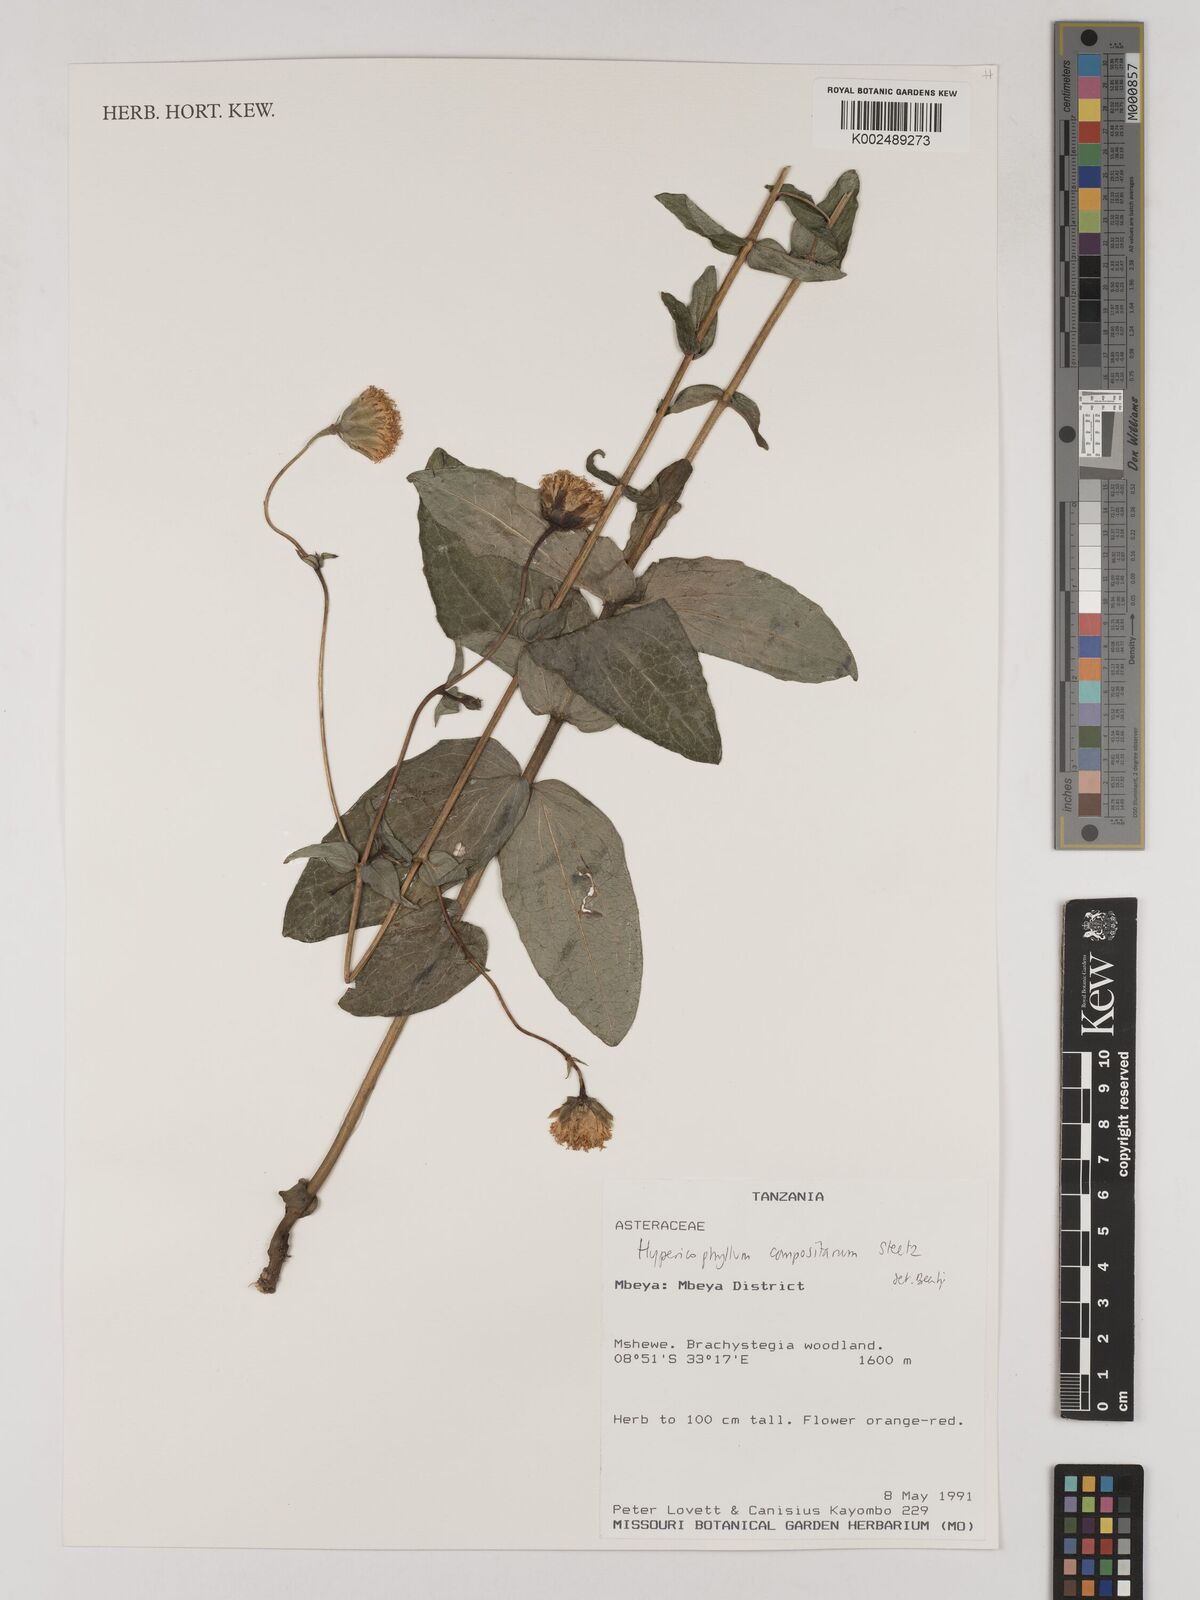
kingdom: Plantae
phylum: Tracheophyta
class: Magnoliopsida
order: Asterales
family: Asteraceae
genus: Hypericophyllum
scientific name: Hypericophyllum compositarum
